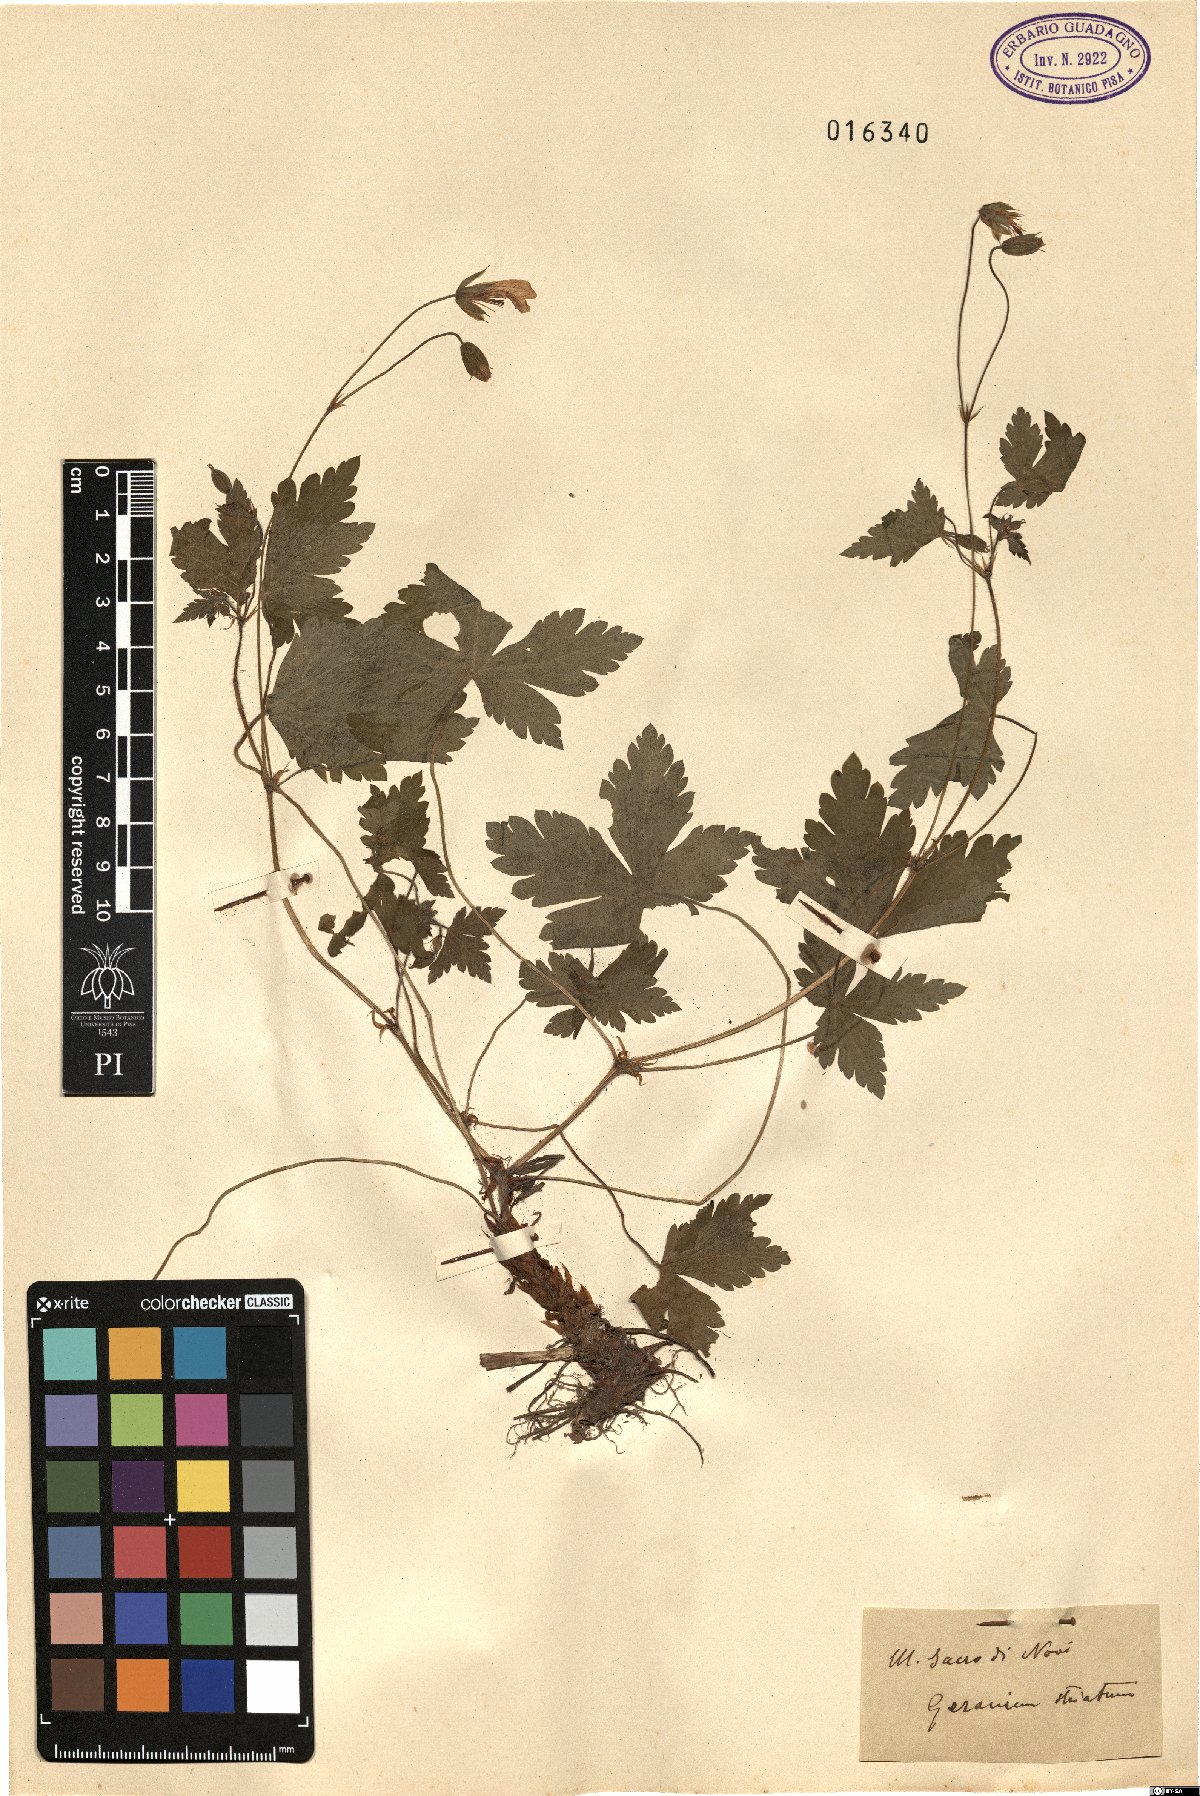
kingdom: Plantae
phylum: Tracheophyta
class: Magnoliopsida
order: Geraniales
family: Geraniaceae
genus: Geranium
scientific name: Geranium versicolor
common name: Pencilled crane's-bill
